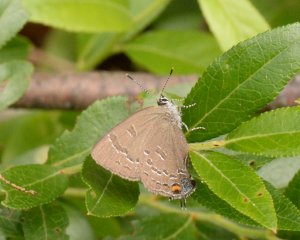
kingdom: Animalia
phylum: Arthropoda
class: Insecta
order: Lepidoptera
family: Lycaenidae
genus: Satyrium
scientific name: Satyrium calanus
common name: Banded Hairstreak
